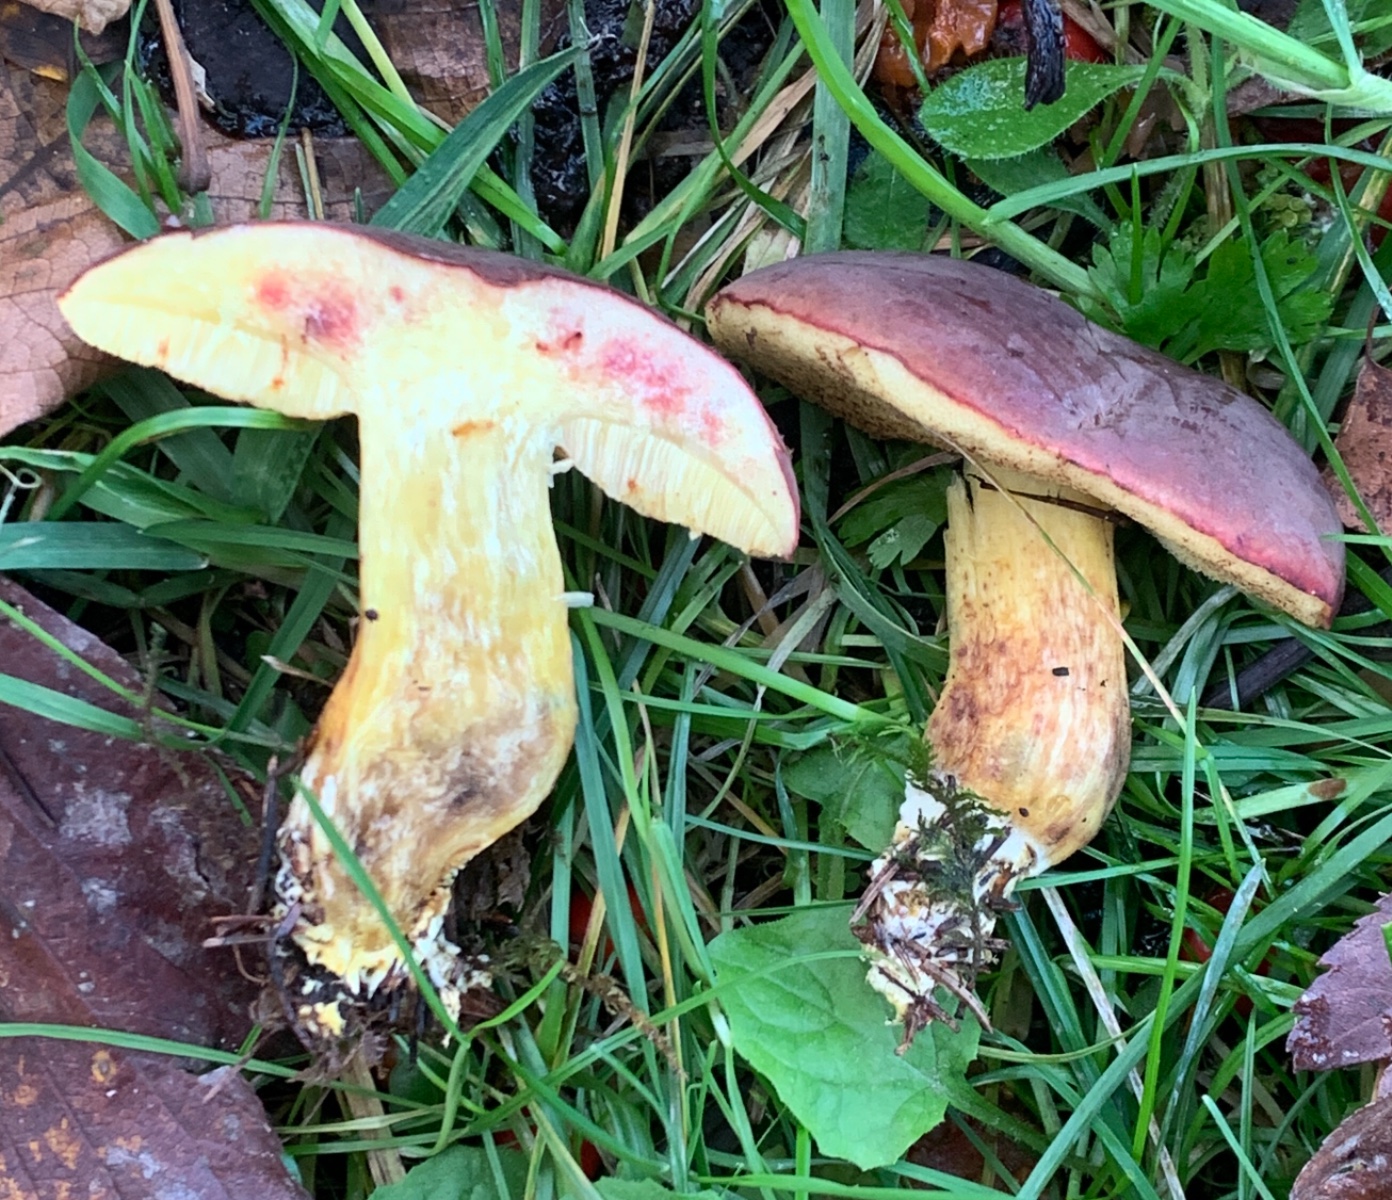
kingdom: Fungi
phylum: Basidiomycota
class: Agaricomycetes
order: Boletales
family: Boletaceae
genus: Xerocomellus
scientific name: Xerocomellus pruinatus
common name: dugget rørhat
